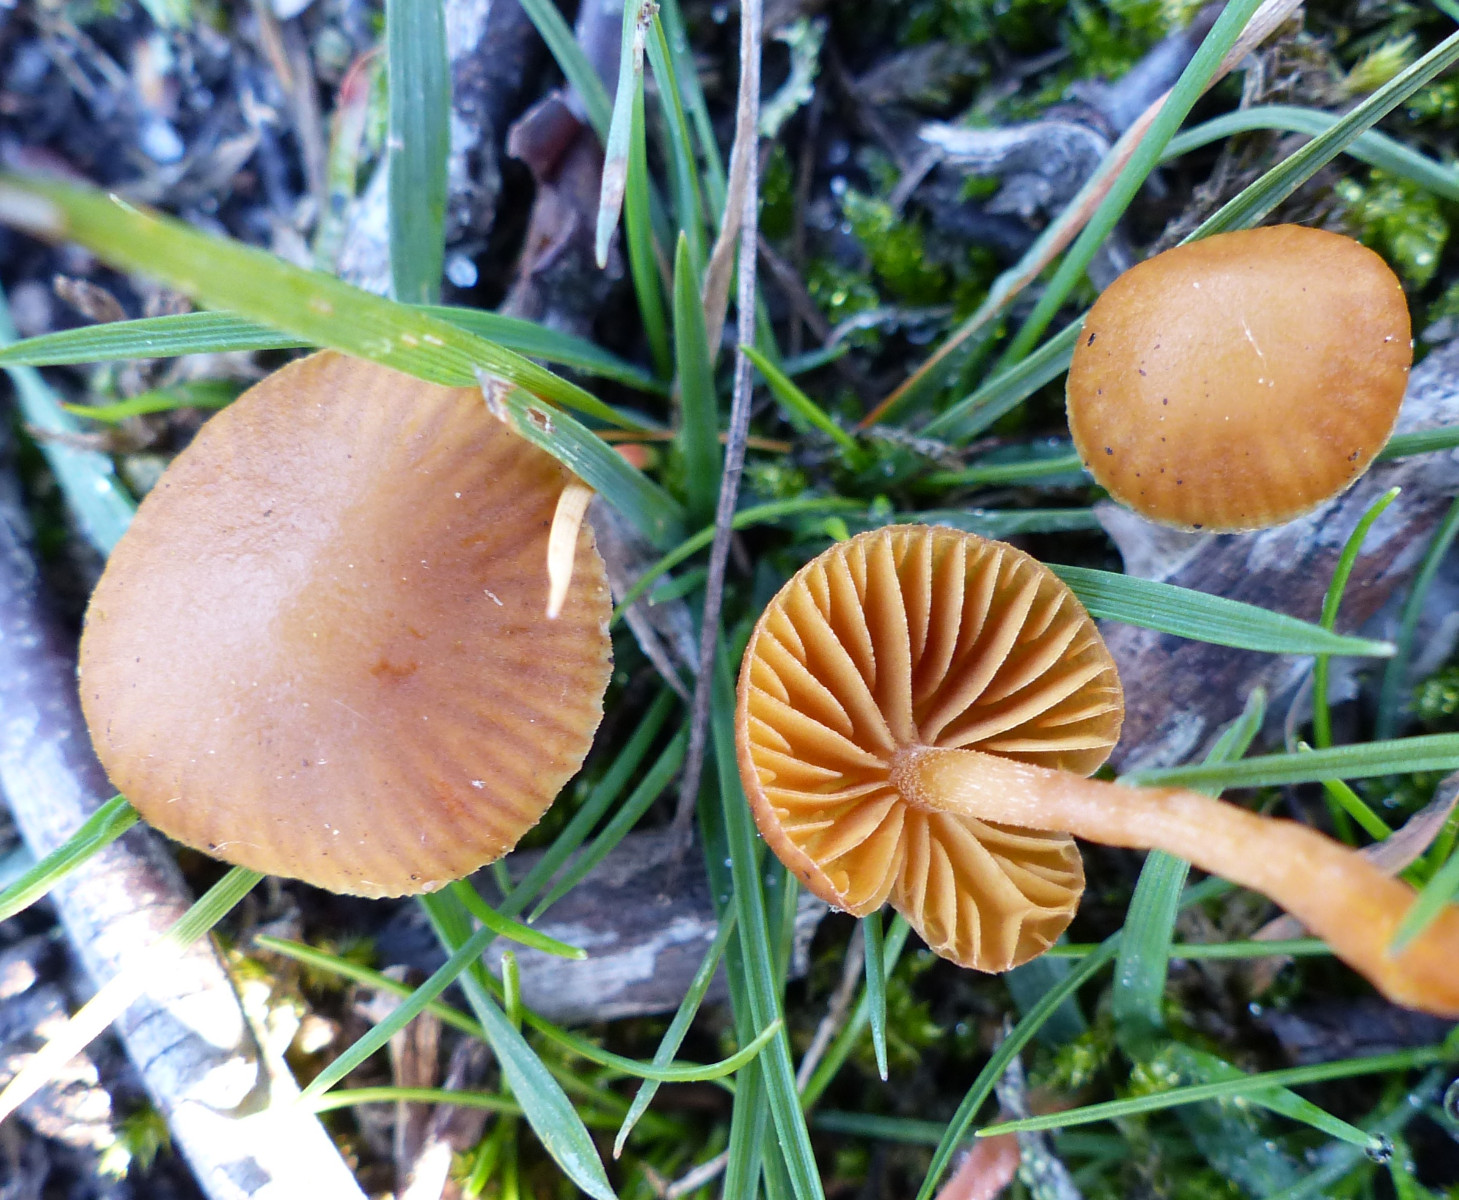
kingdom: Fungi
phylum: Basidiomycota
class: Agaricomycetes
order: Agaricales
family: Hymenogastraceae
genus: Galerina
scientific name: Galerina
